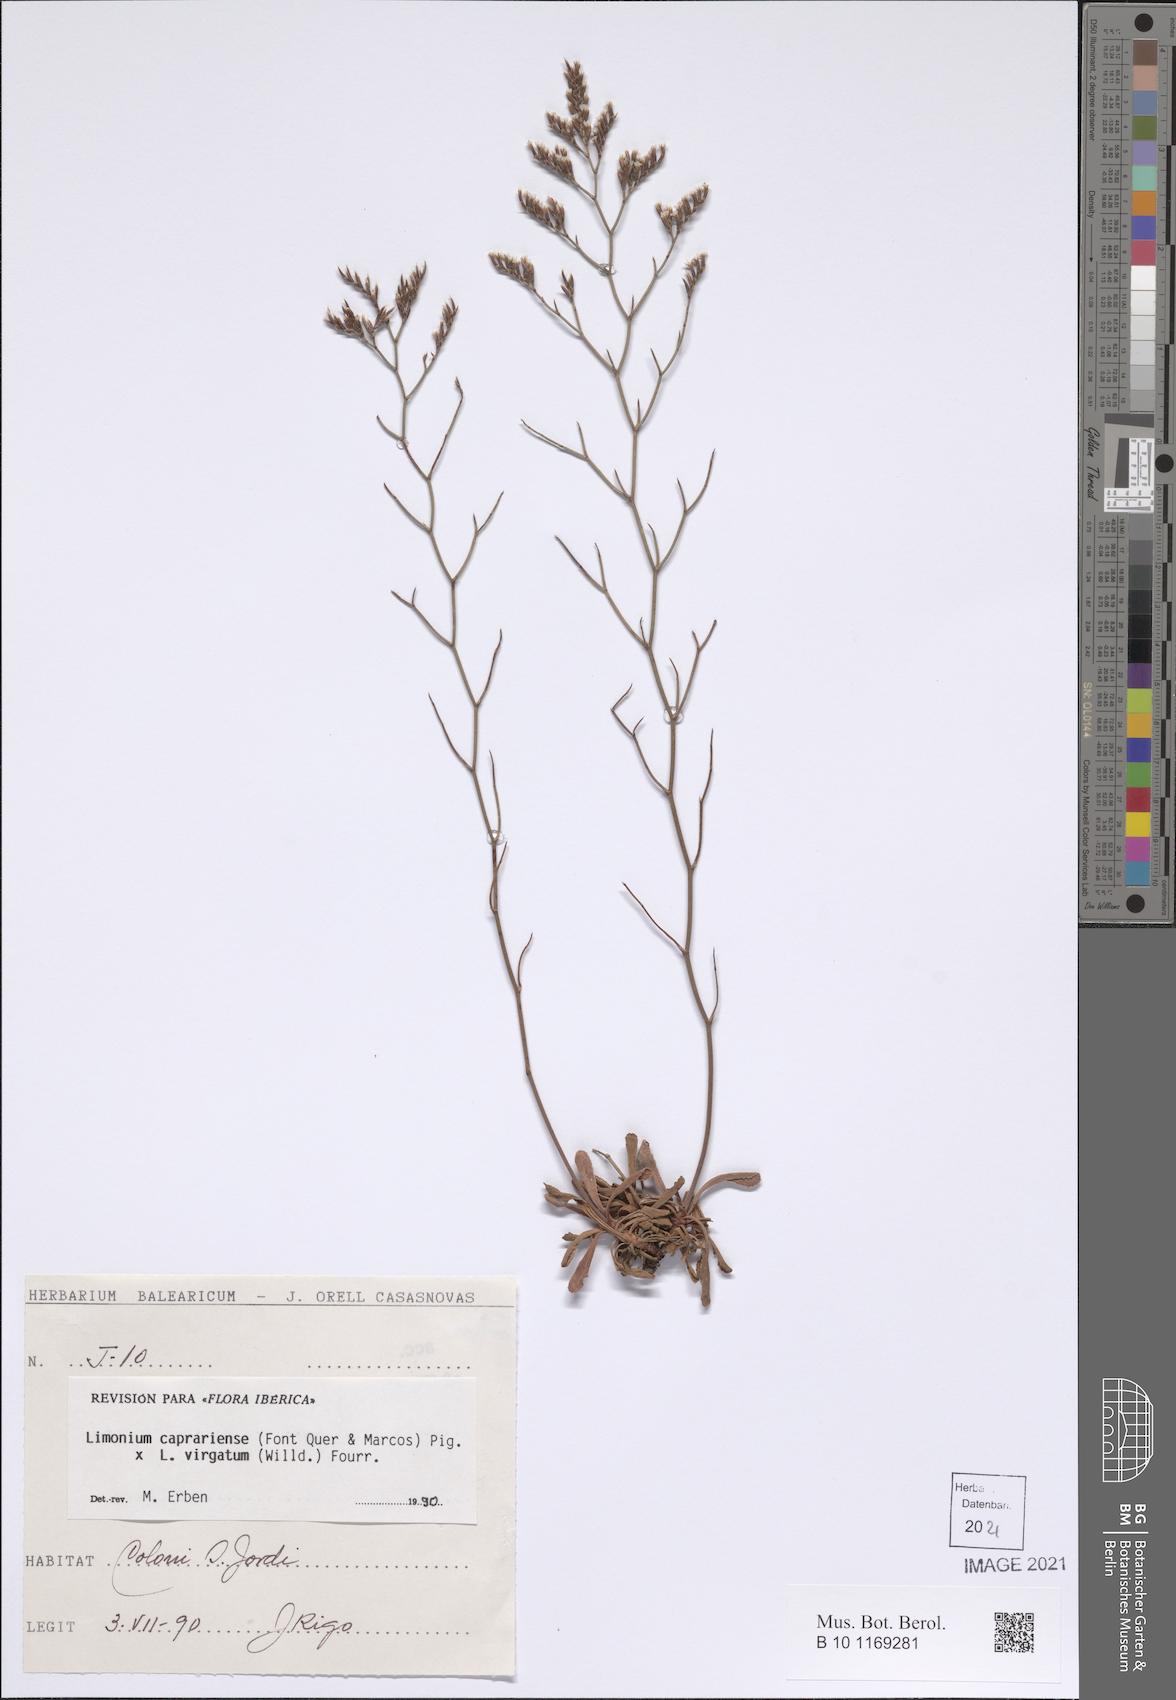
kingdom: Plantae
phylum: Tracheophyta
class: Magnoliopsida
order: Caryophyllales
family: Plumbaginaceae
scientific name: Plumbaginaceae
